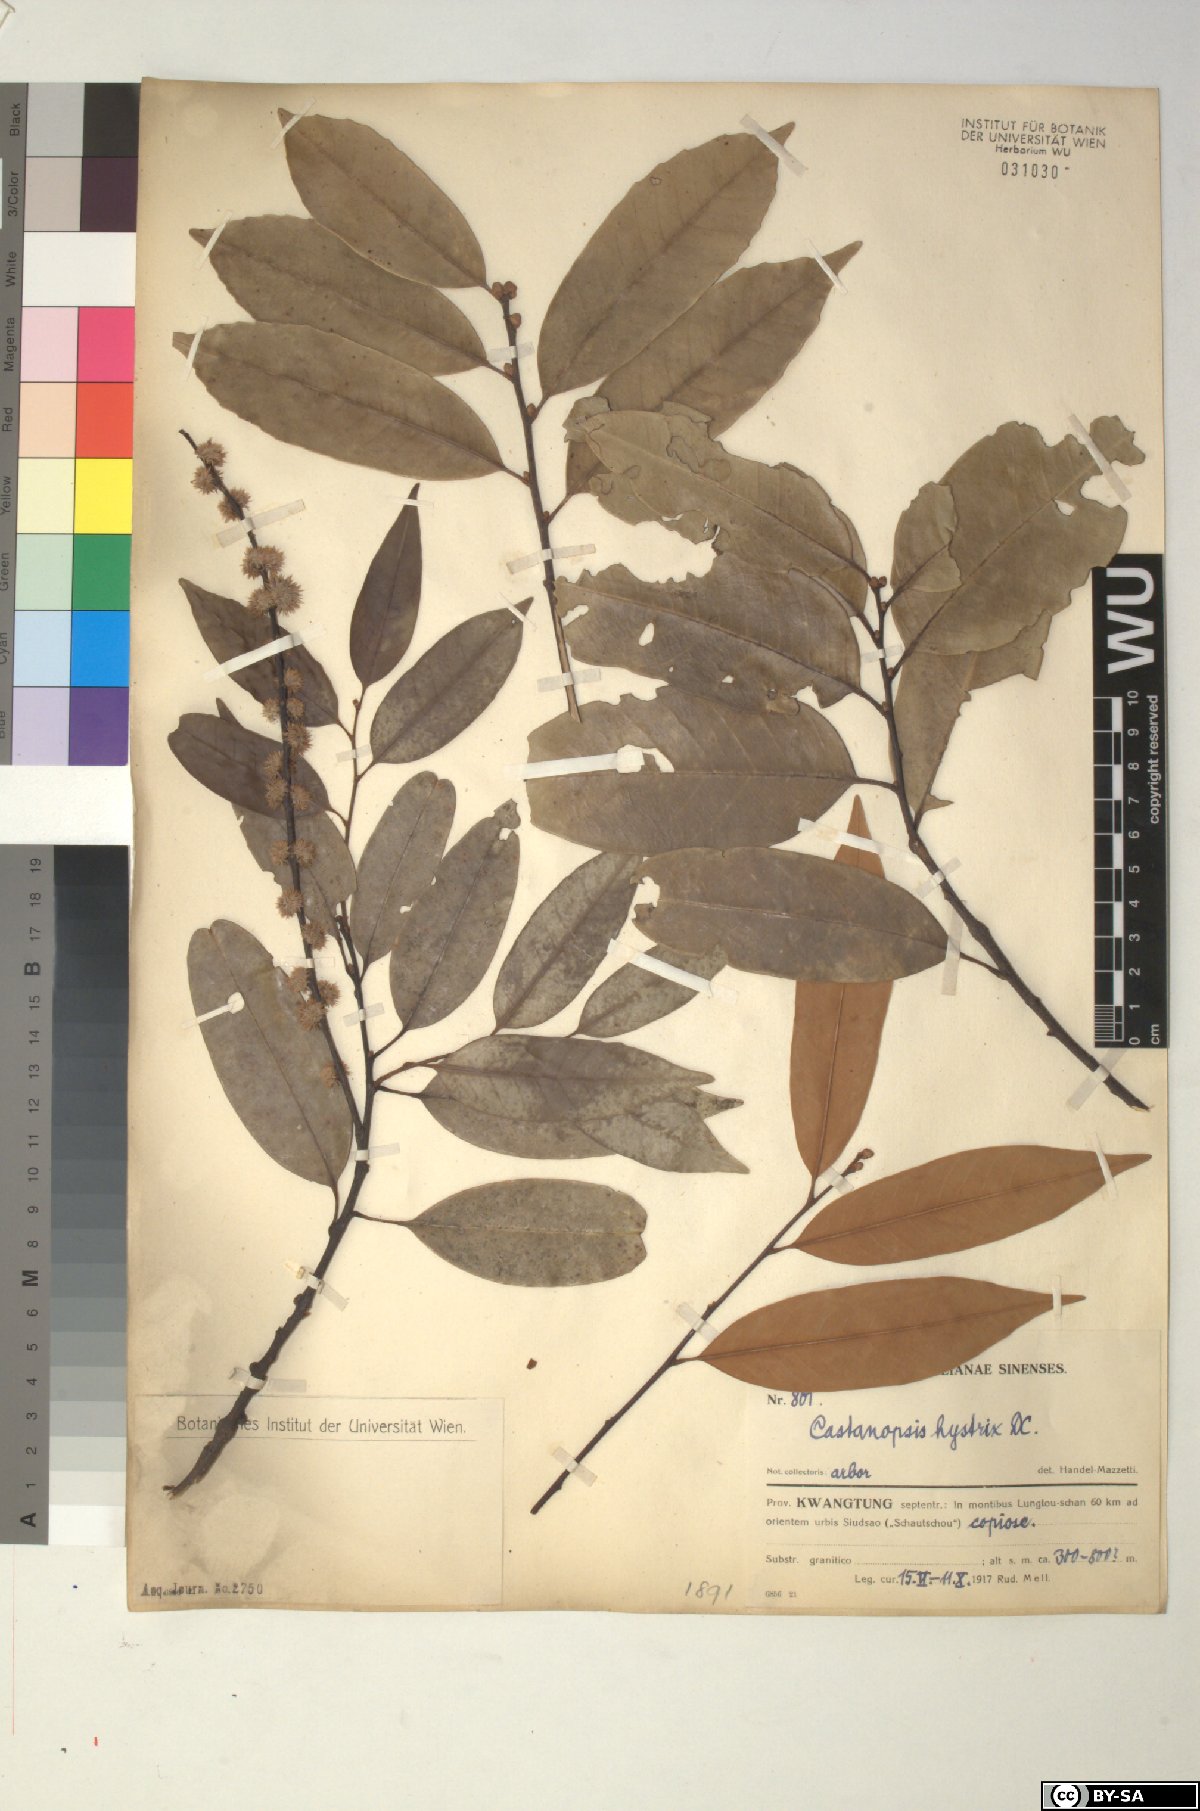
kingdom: Plantae
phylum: Tracheophyta
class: Magnoliopsida
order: Fagales
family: Fagaceae
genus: Castanopsis
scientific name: Castanopsis hystrix
